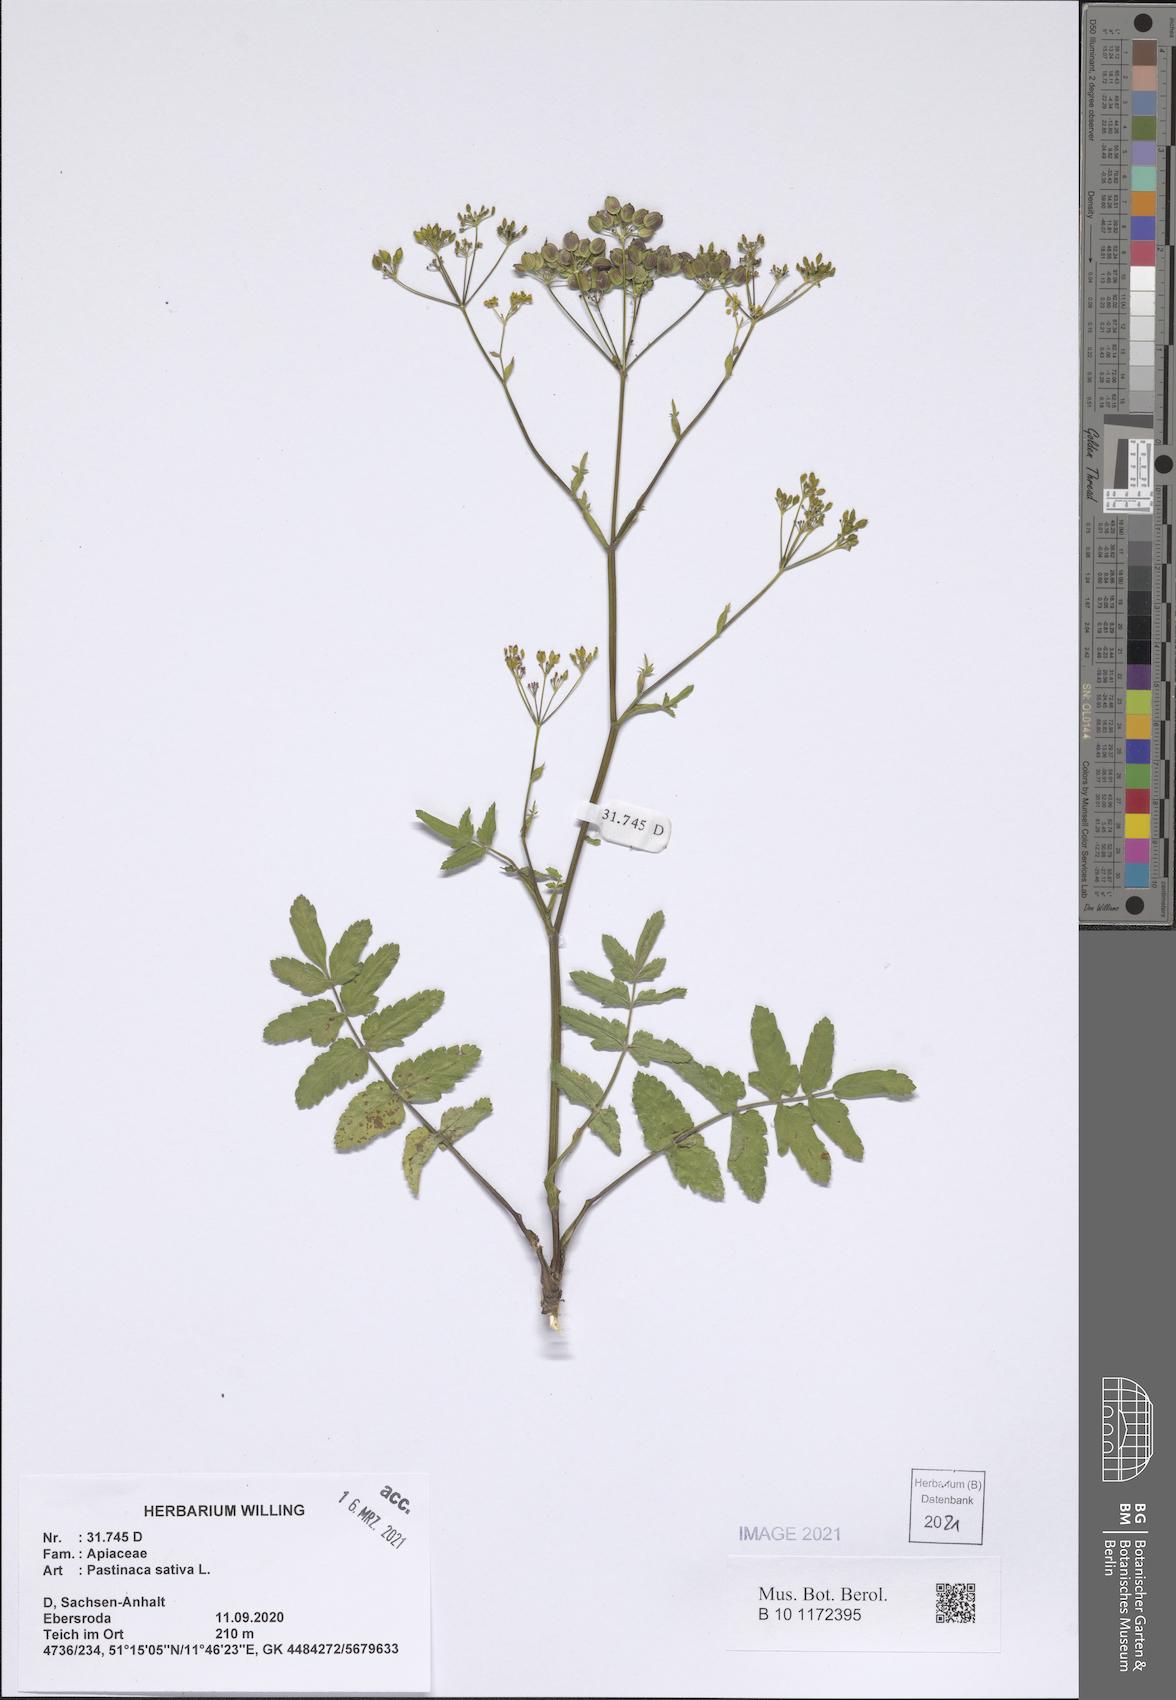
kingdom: Plantae
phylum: Tracheophyta
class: Magnoliopsida
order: Apiales
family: Apiaceae
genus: Pastinaca
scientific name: Pastinaca sativa
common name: Wild parsnip
